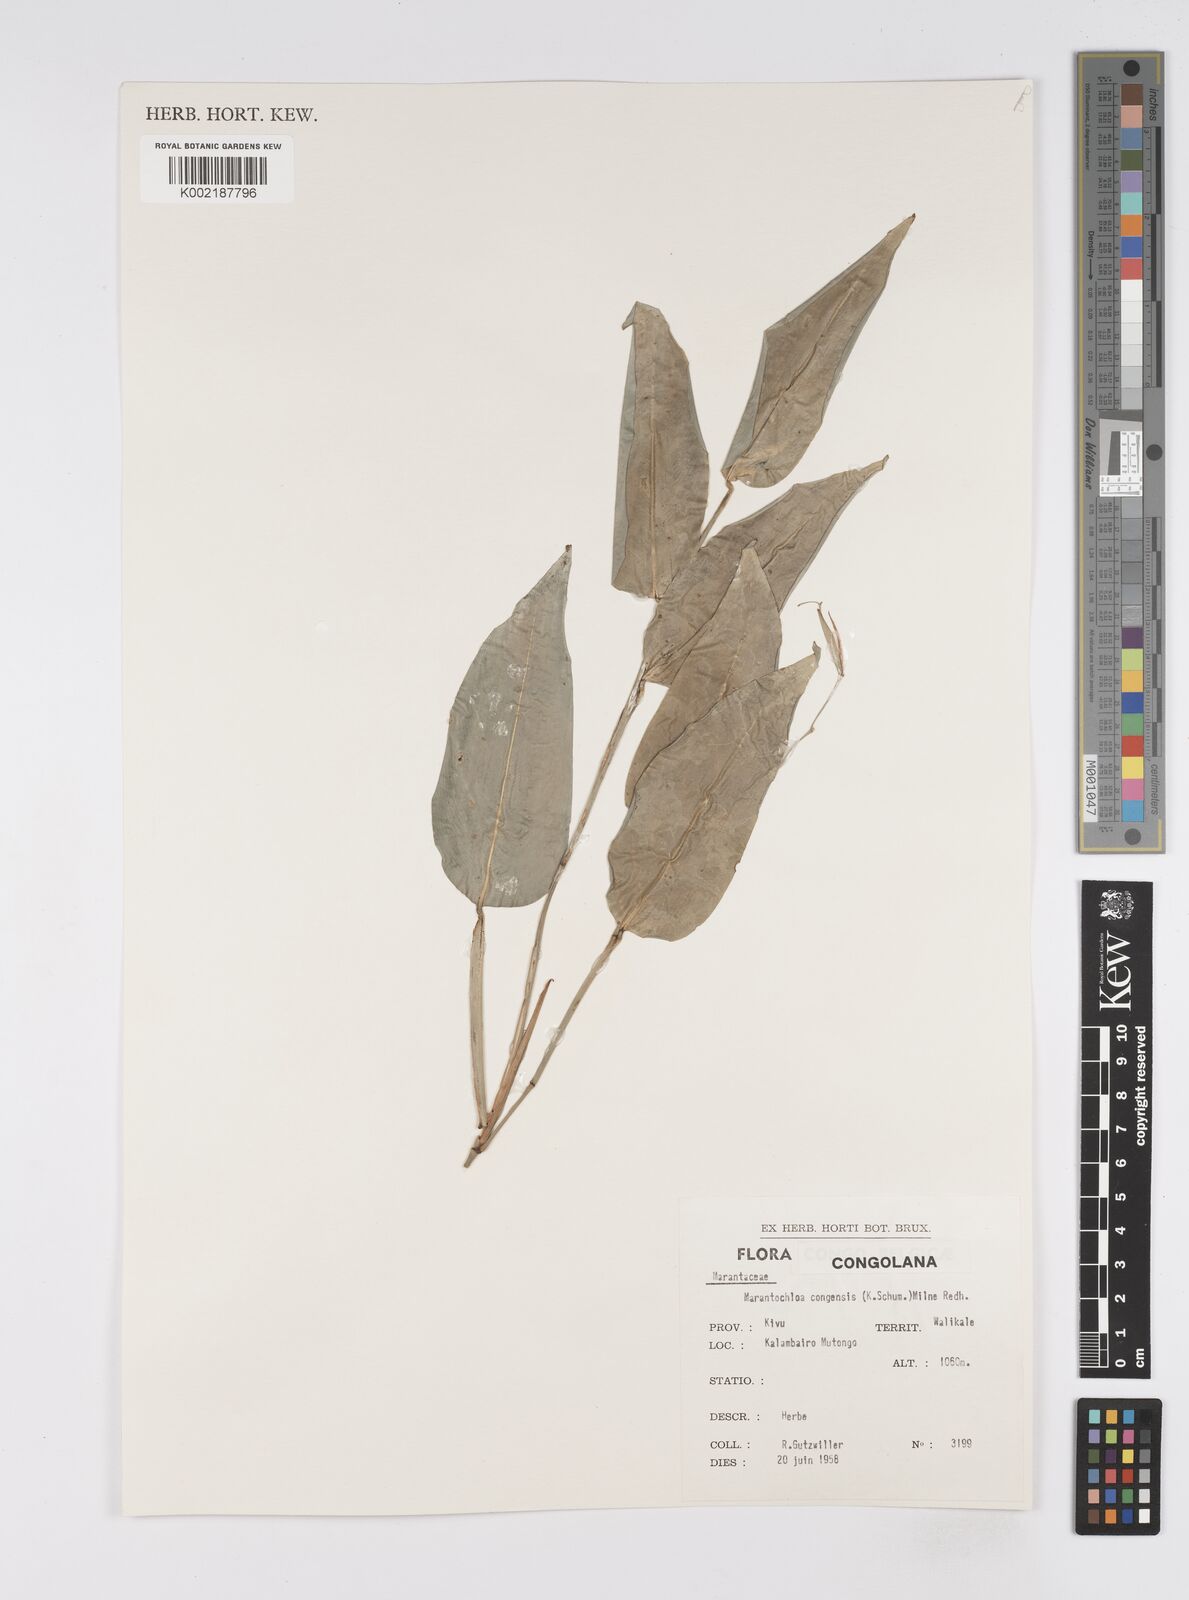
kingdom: Plantae
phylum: Tracheophyta
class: Liliopsida
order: Zingiberales
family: Marantaceae
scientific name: Marantaceae
